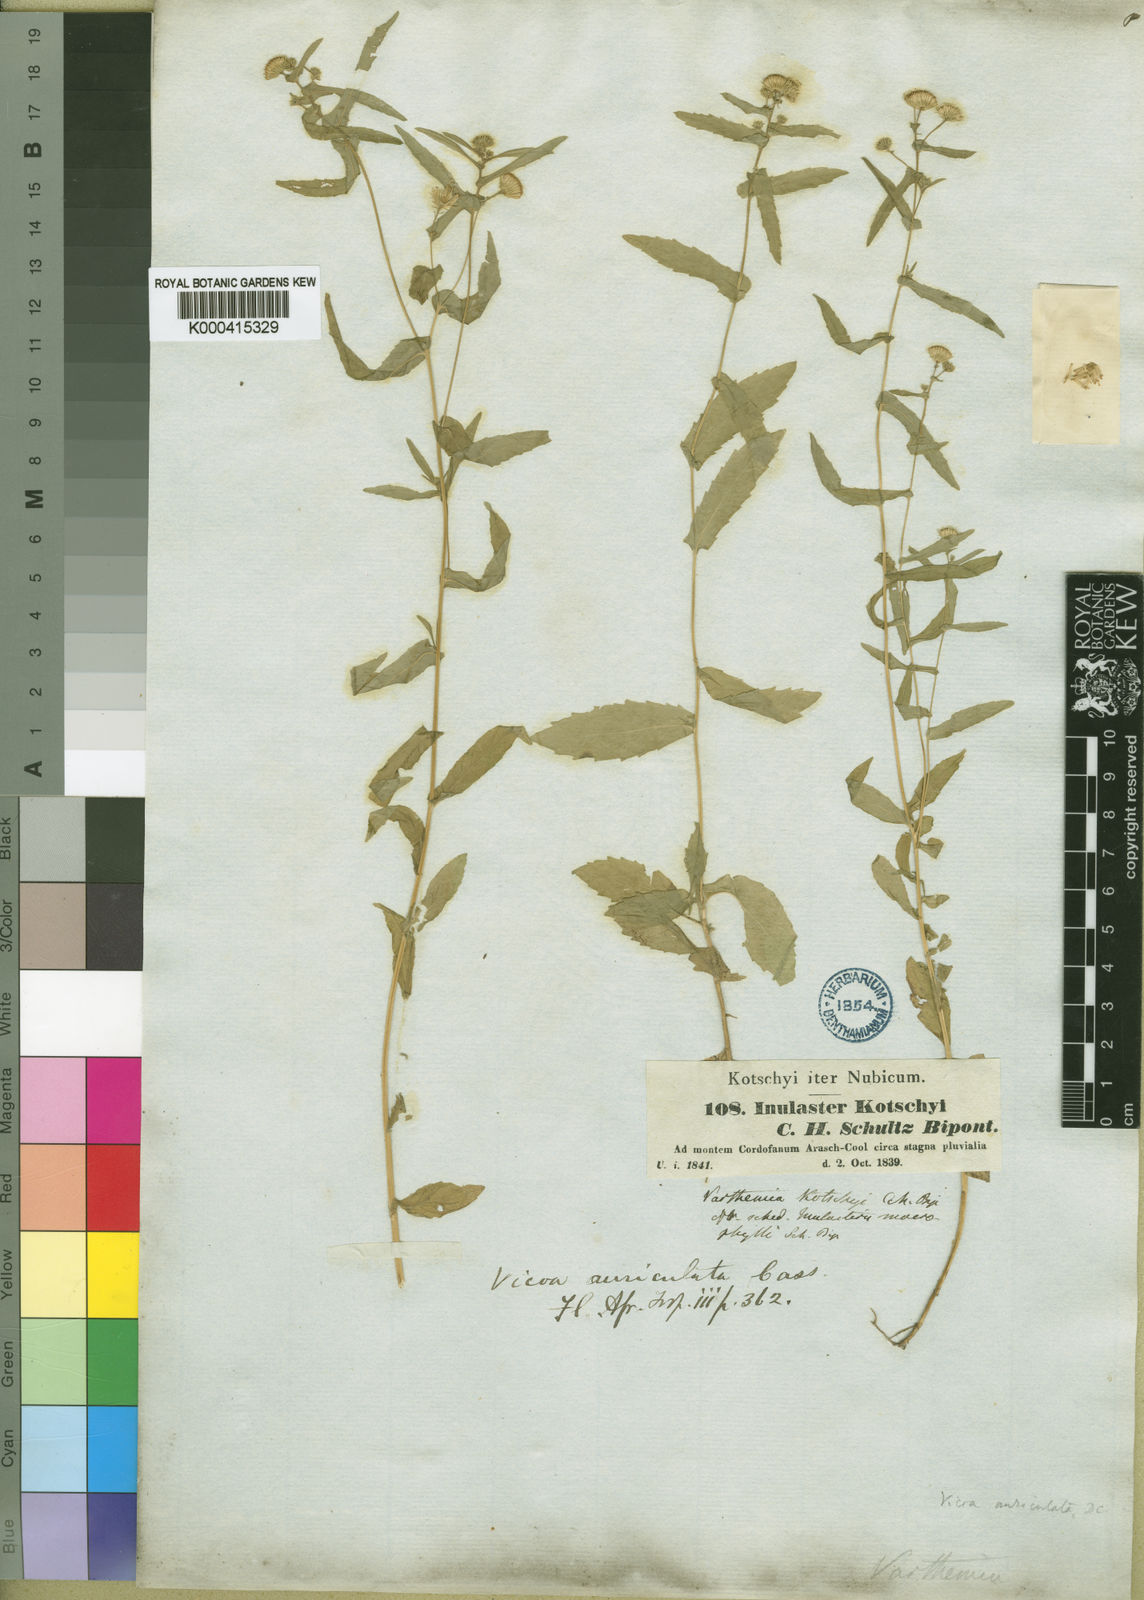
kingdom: Plantae
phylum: Tracheophyta
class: Magnoliopsida
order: Asterales
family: Asteraceae
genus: Vicoa
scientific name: Vicoa indica
